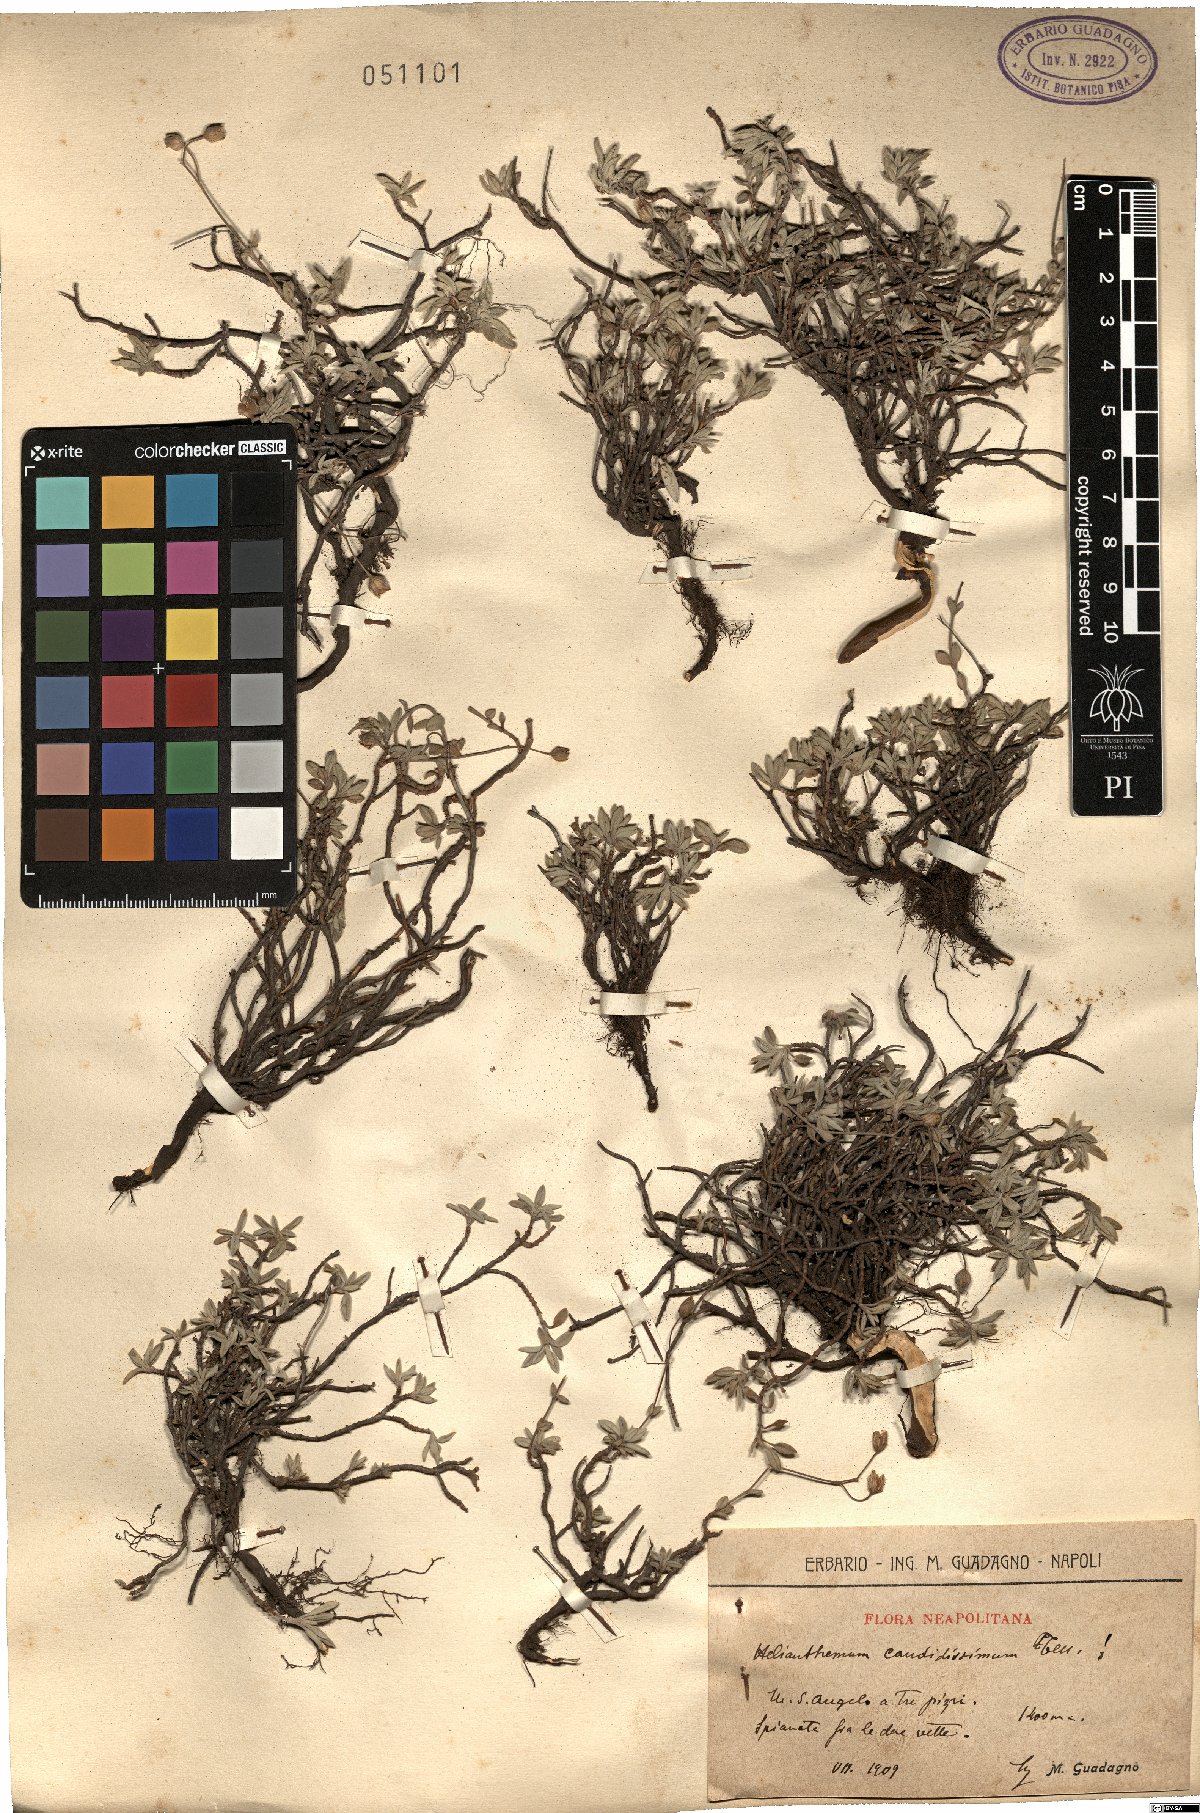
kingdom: Plantae
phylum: Tracheophyta
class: Magnoliopsida
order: Malvales
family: Cistaceae
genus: Helianthemum
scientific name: Helianthemum
